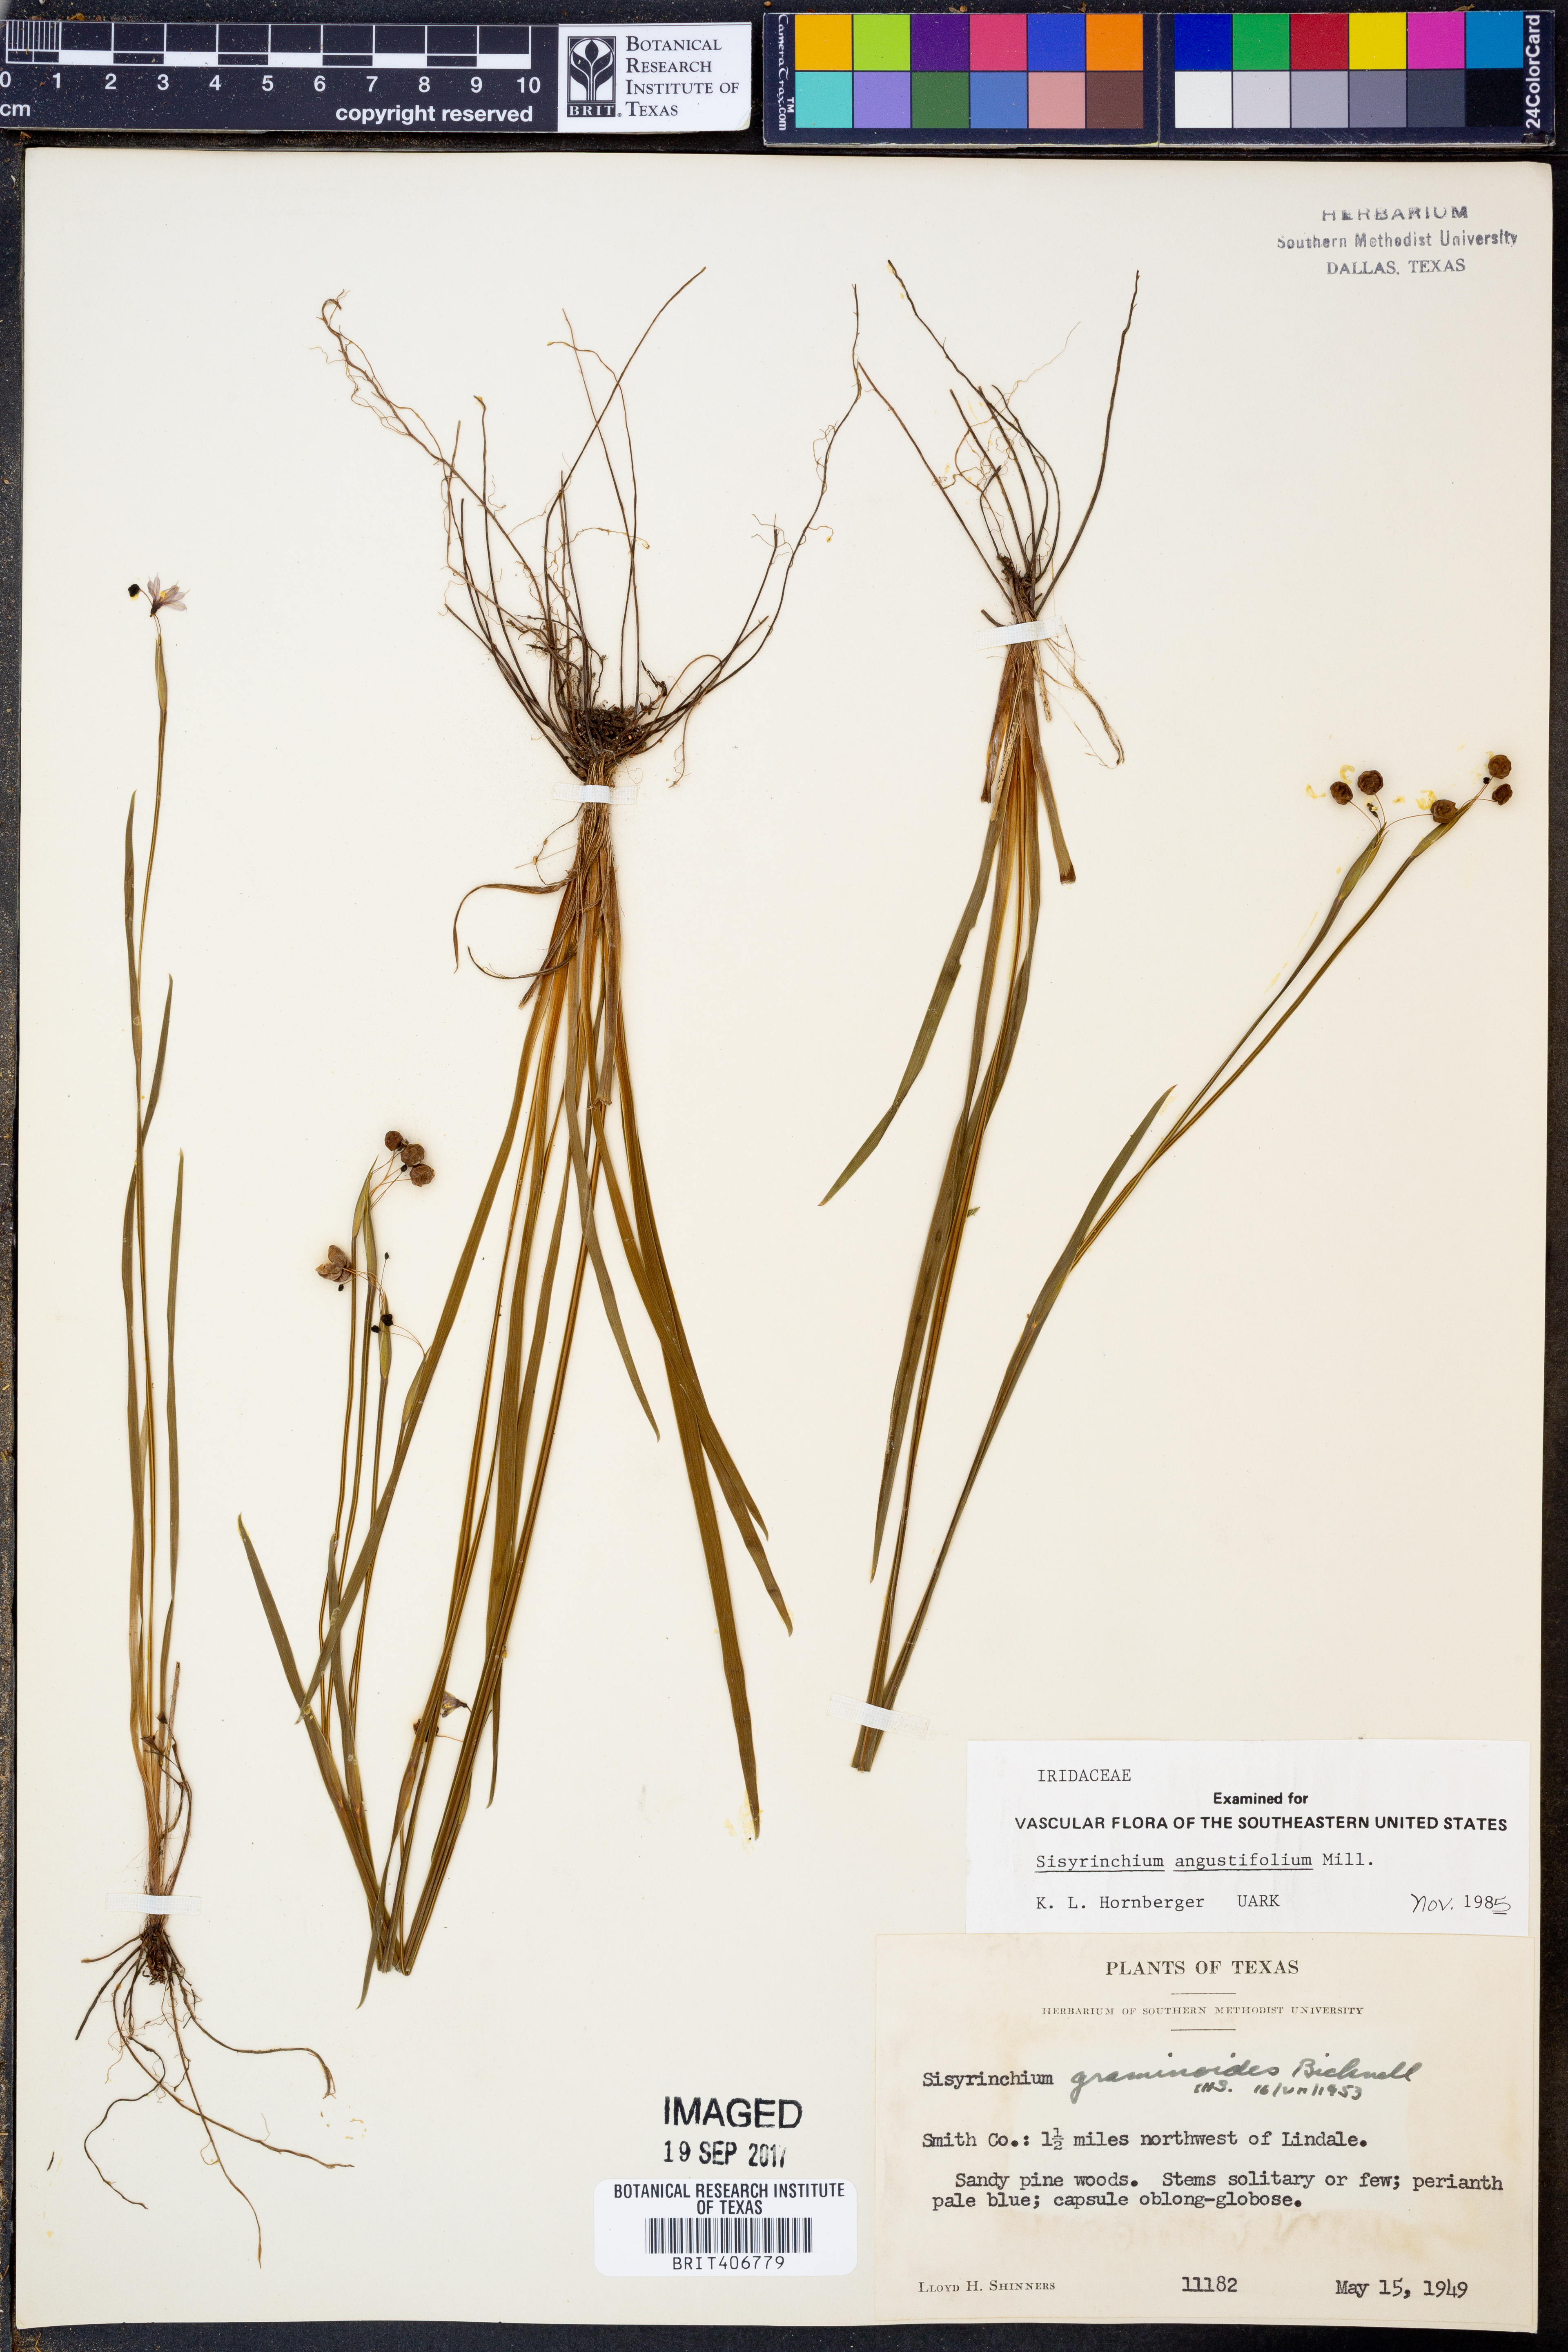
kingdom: Plantae
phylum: Tracheophyta
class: Liliopsida
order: Asparagales
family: Iridaceae
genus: Sisyrinchium
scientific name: Sisyrinchium angustifolium
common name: Narrow-leaf blue-eyed-grass
